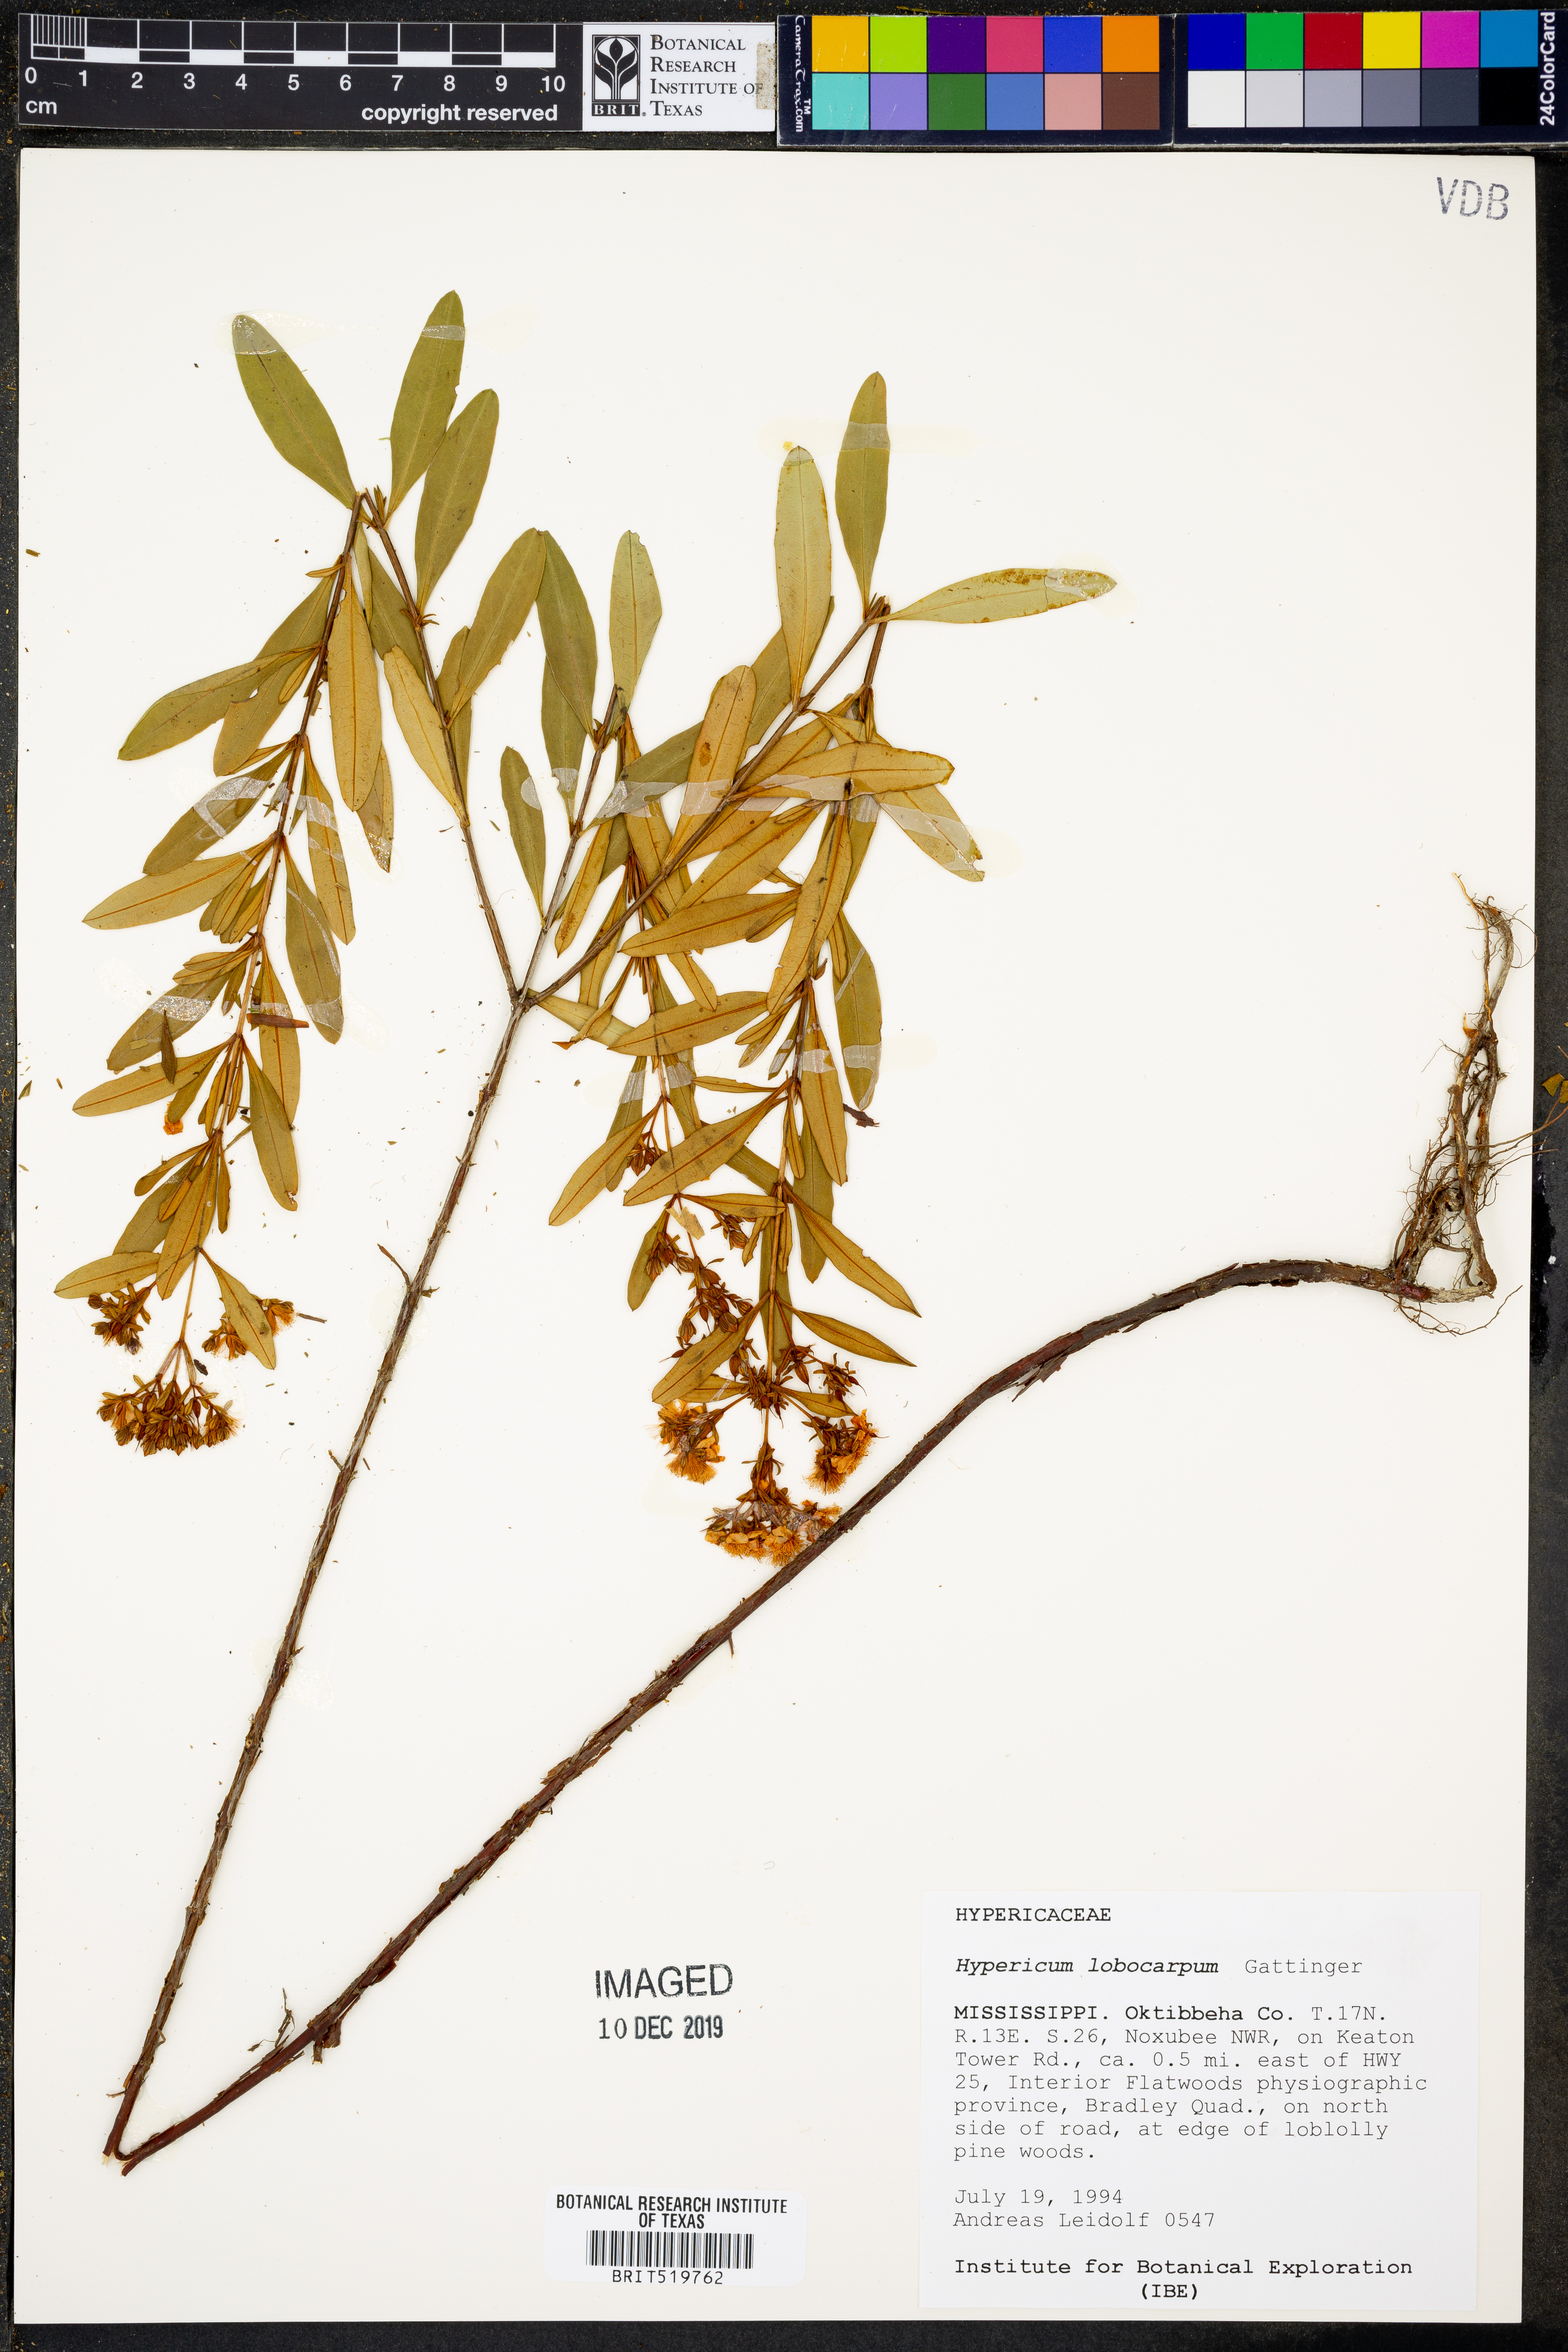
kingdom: Plantae
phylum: Tracheophyta
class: Magnoliopsida
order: Malpighiales
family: Hypericaceae
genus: Hypericum
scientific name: Hypericum lobocarpum
